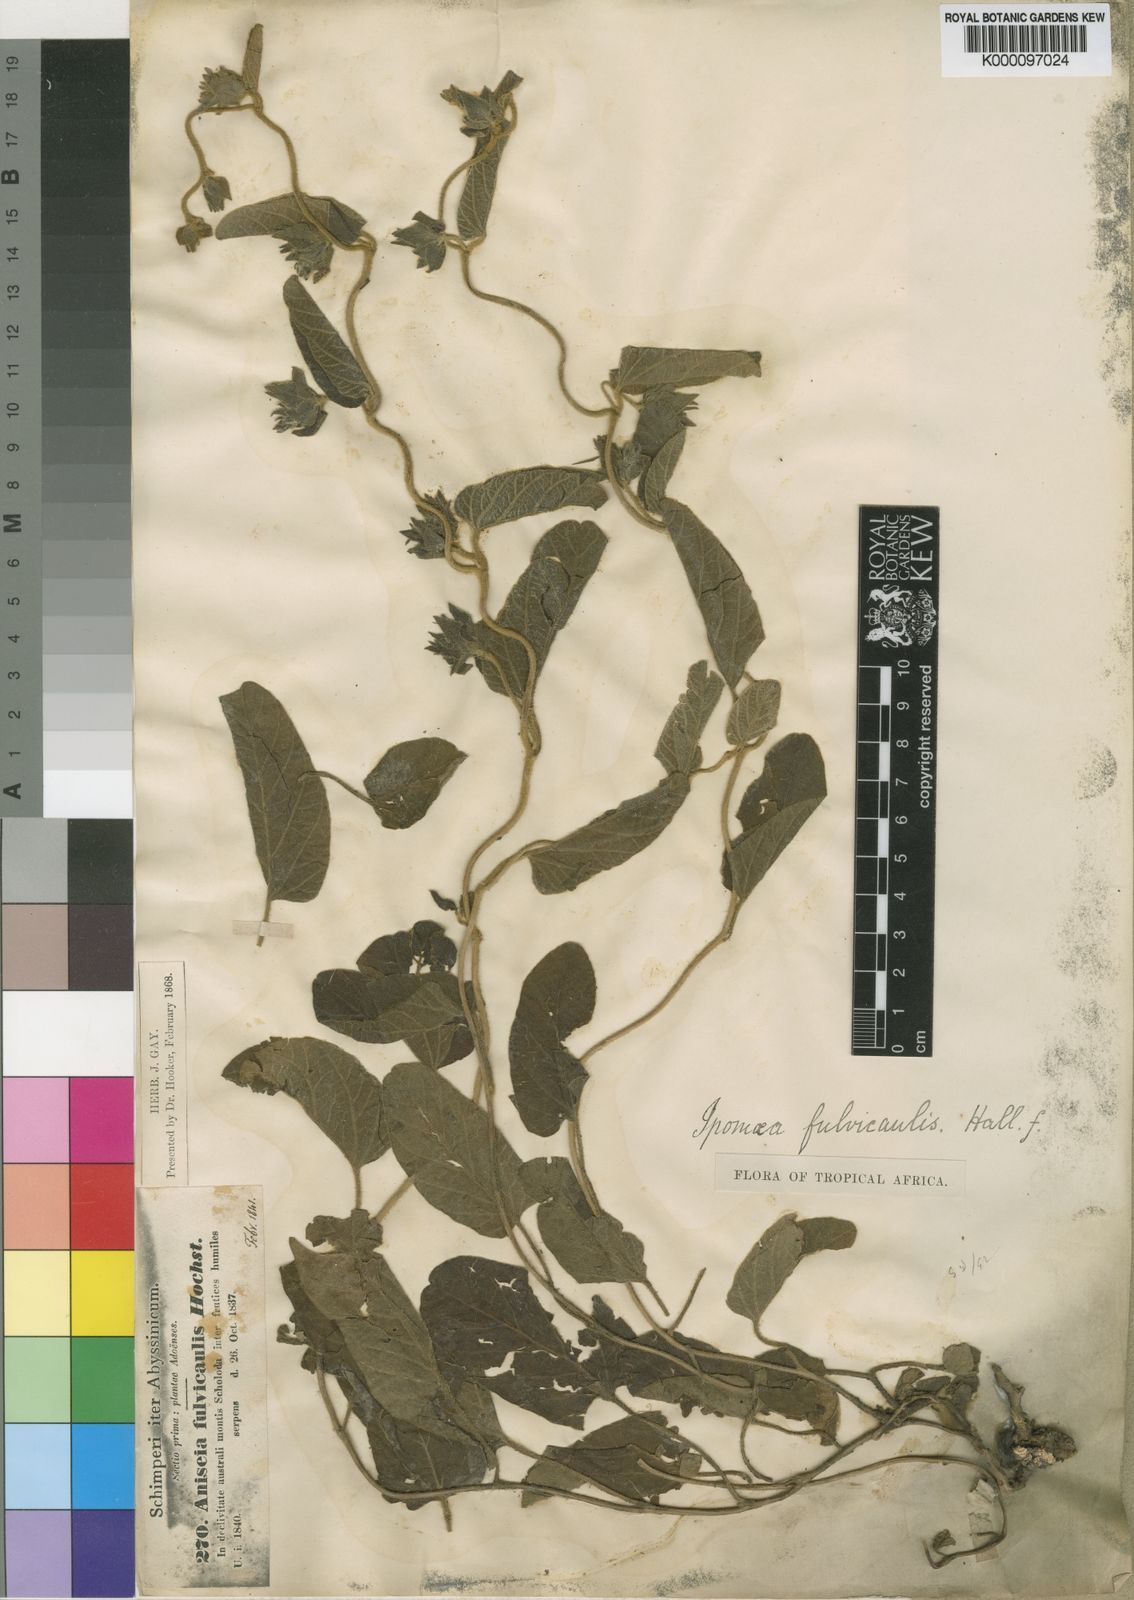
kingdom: Plantae
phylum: Tracheophyta
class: Magnoliopsida
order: Solanales
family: Convolvulaceae
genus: Ipomoea
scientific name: Ipomoea fulvicaulis
